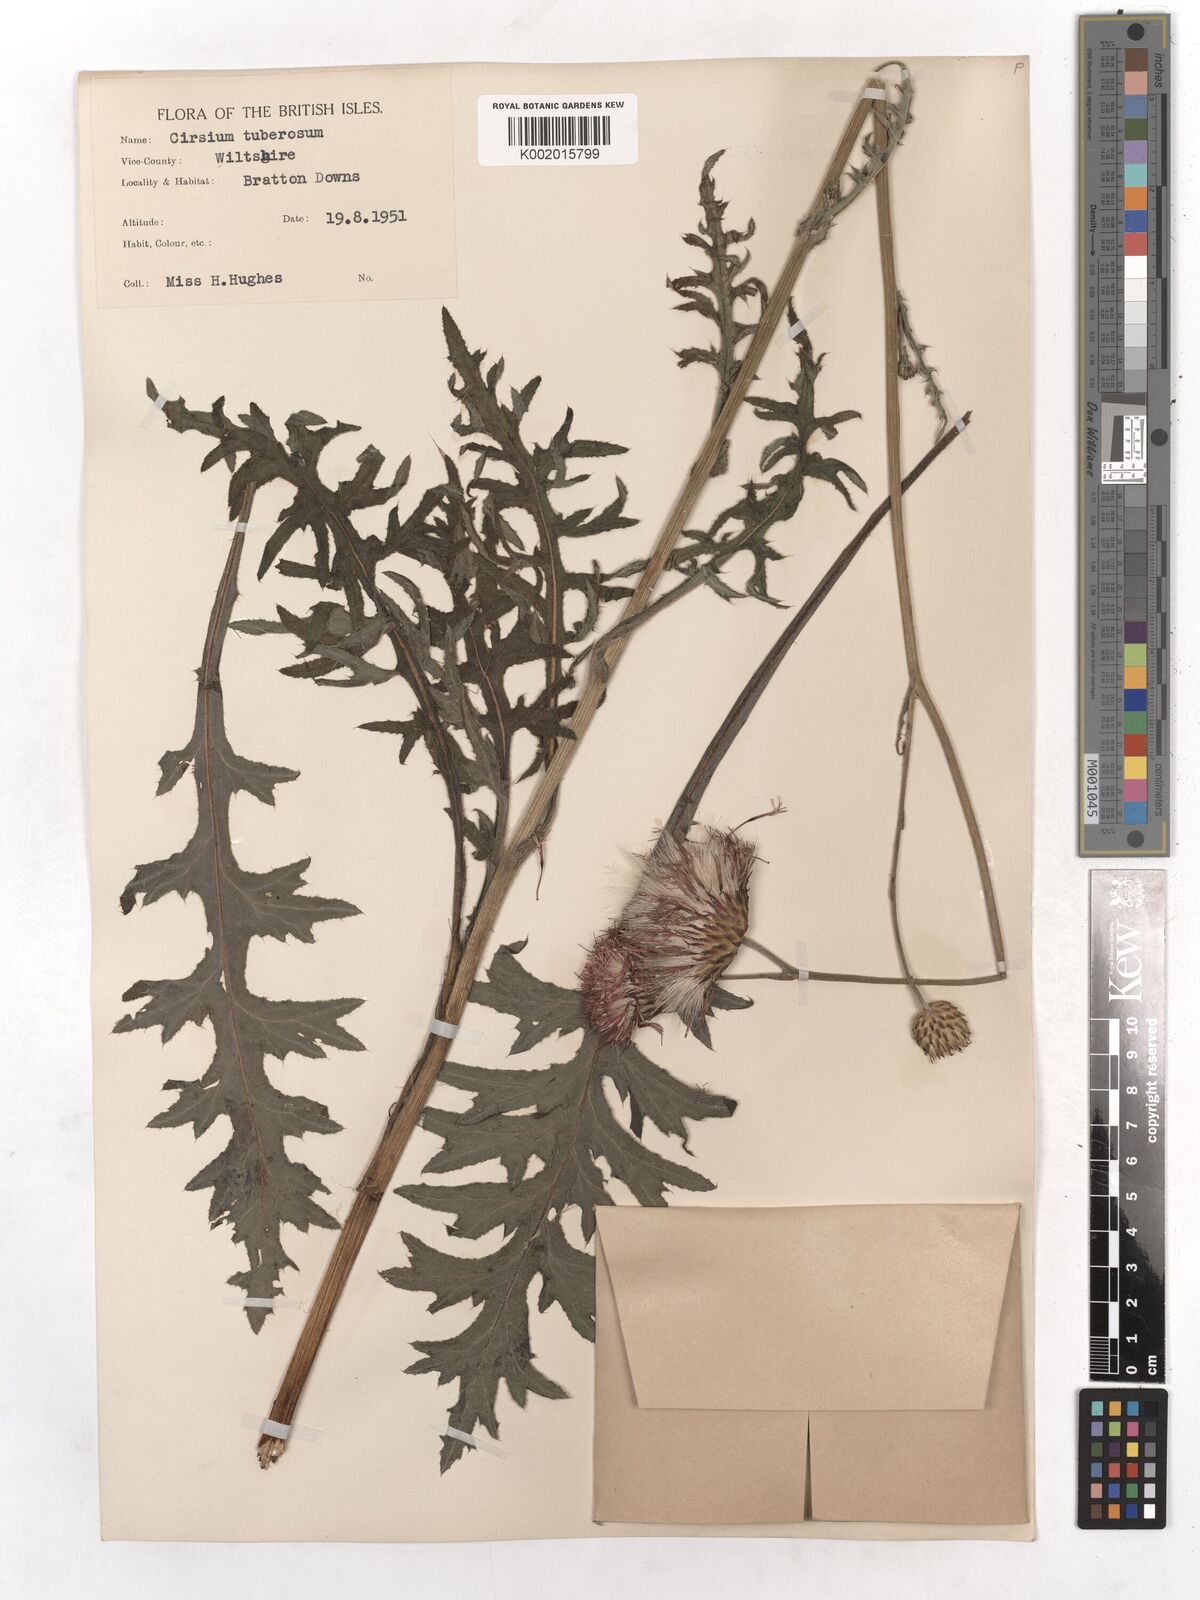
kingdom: Plantae
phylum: Tracheophyta
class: Magnoliopsida
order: Asterales
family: Asteraceae
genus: Cirsium
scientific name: Cirsium tuberosum
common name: Tuberous thistle
